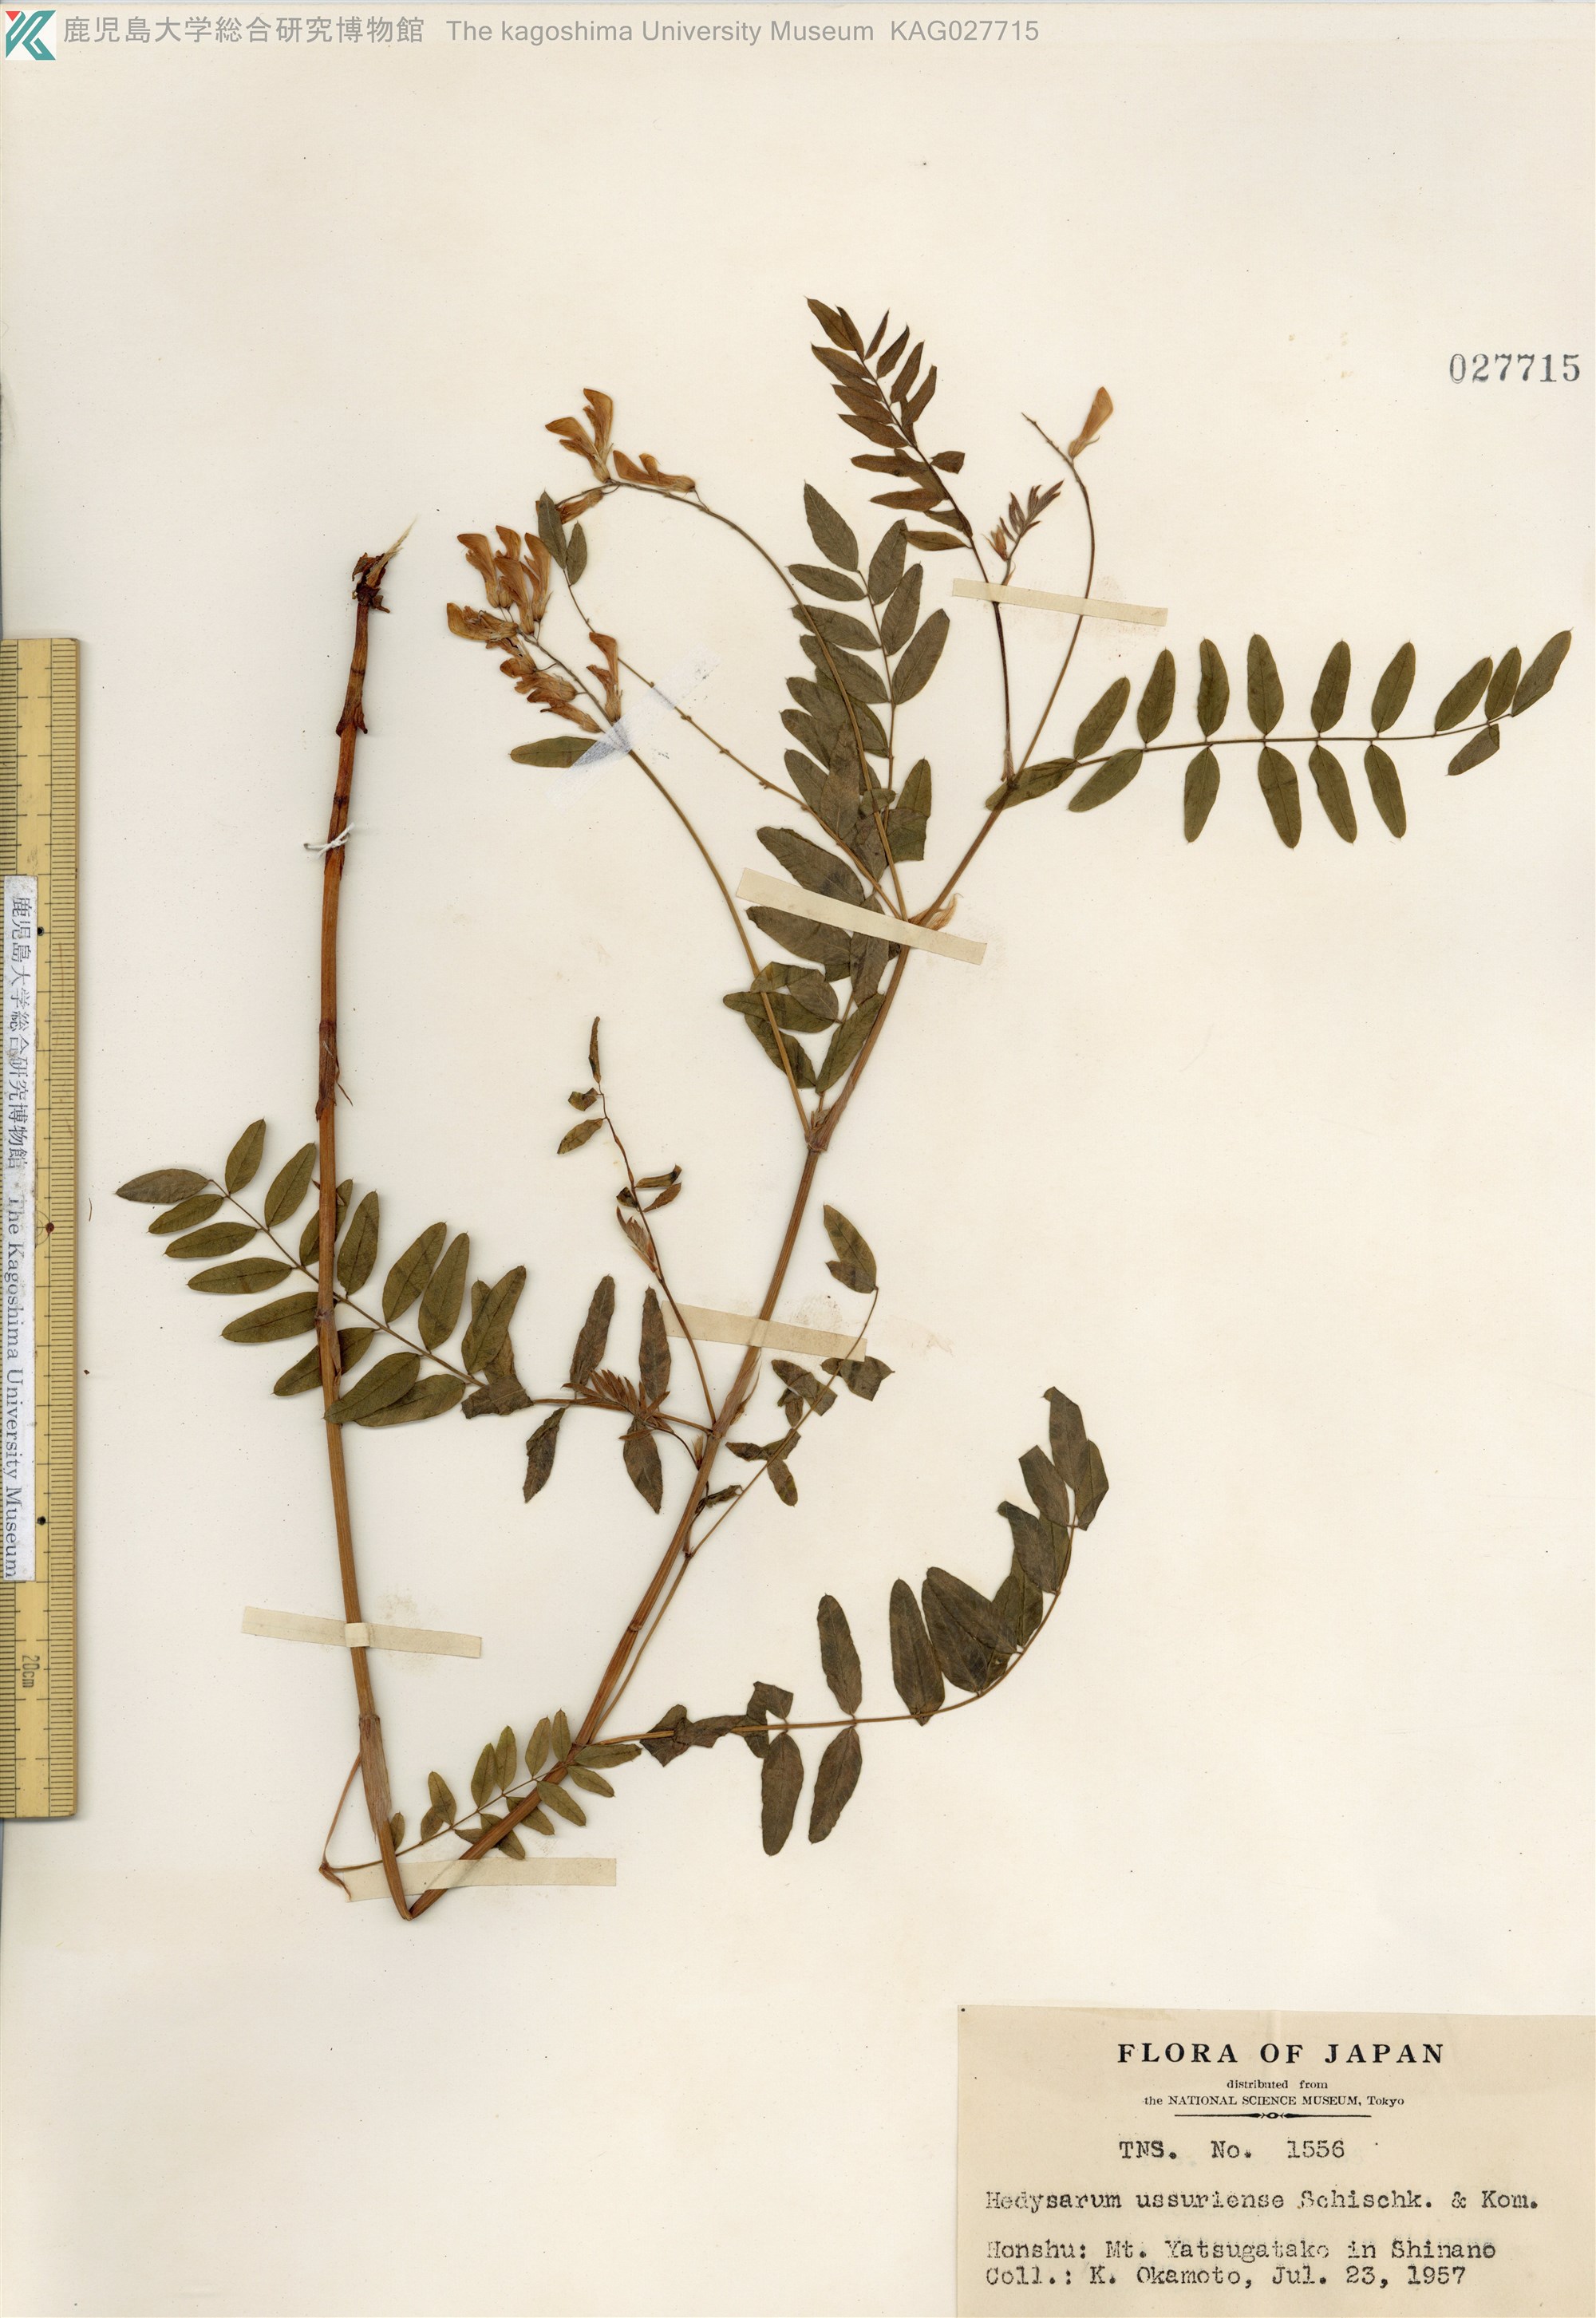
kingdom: Plantae
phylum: Tracheophyta
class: Magnoliopsida
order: Fabales
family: Fabaceae
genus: Hedysarum
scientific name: Hedysarum vicioides
